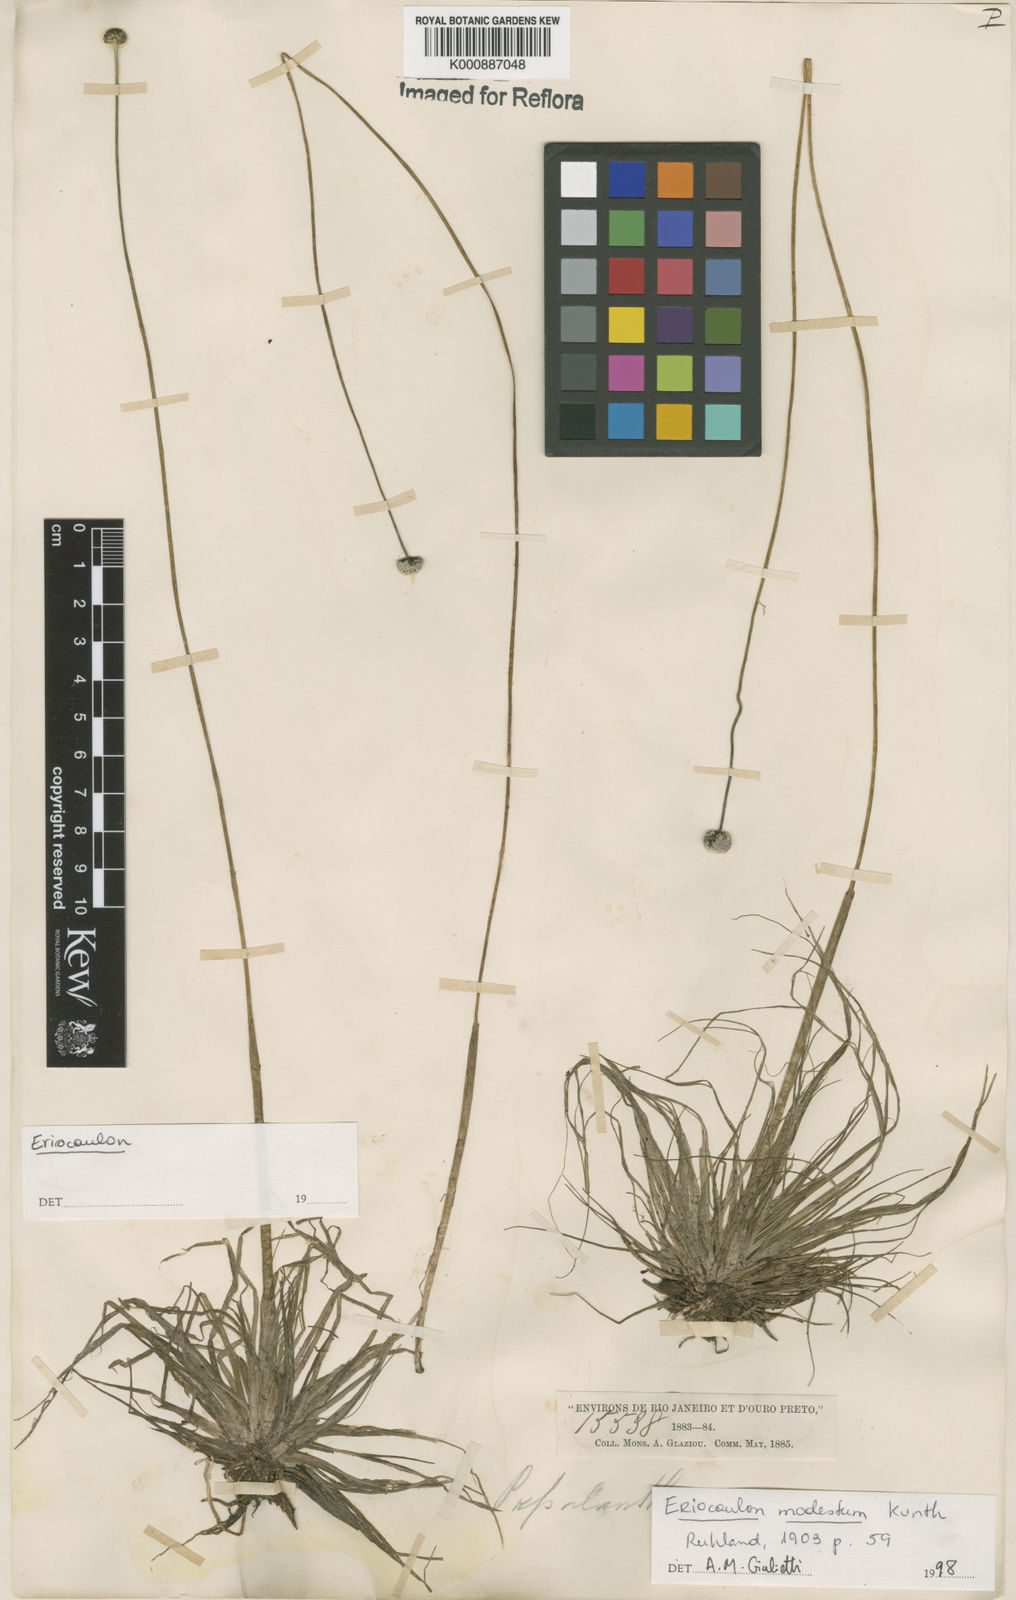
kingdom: Plantae
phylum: Tracheophyta
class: Liliopsida
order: Poales
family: Eriocaulaceae
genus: Eriocaulon
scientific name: Eriocaulon modestum
